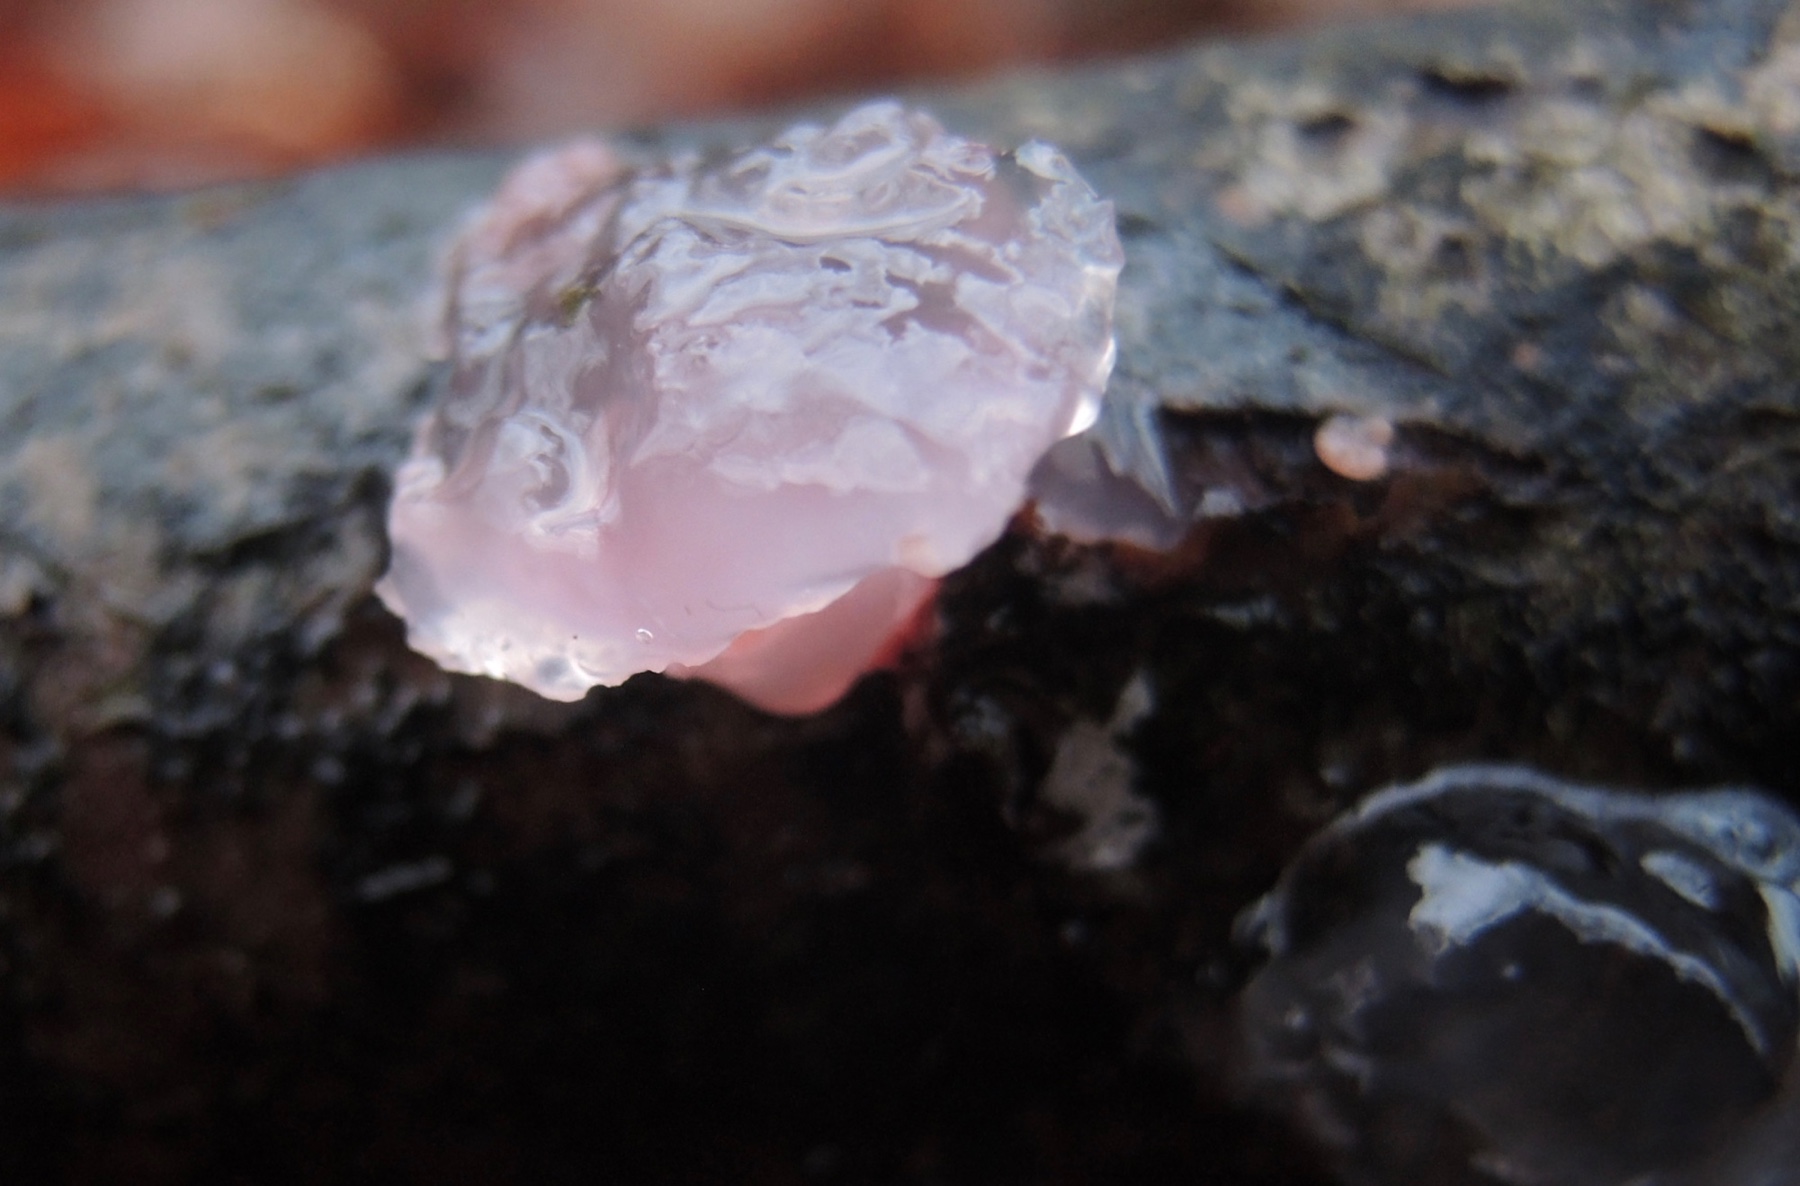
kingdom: Fungi
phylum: Ascomycota
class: Leotiomycetes
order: Helotiales
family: Gelatinodiscaceae
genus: Ascocoryne
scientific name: Ascocoryne cylichnium
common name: stor sejskive
